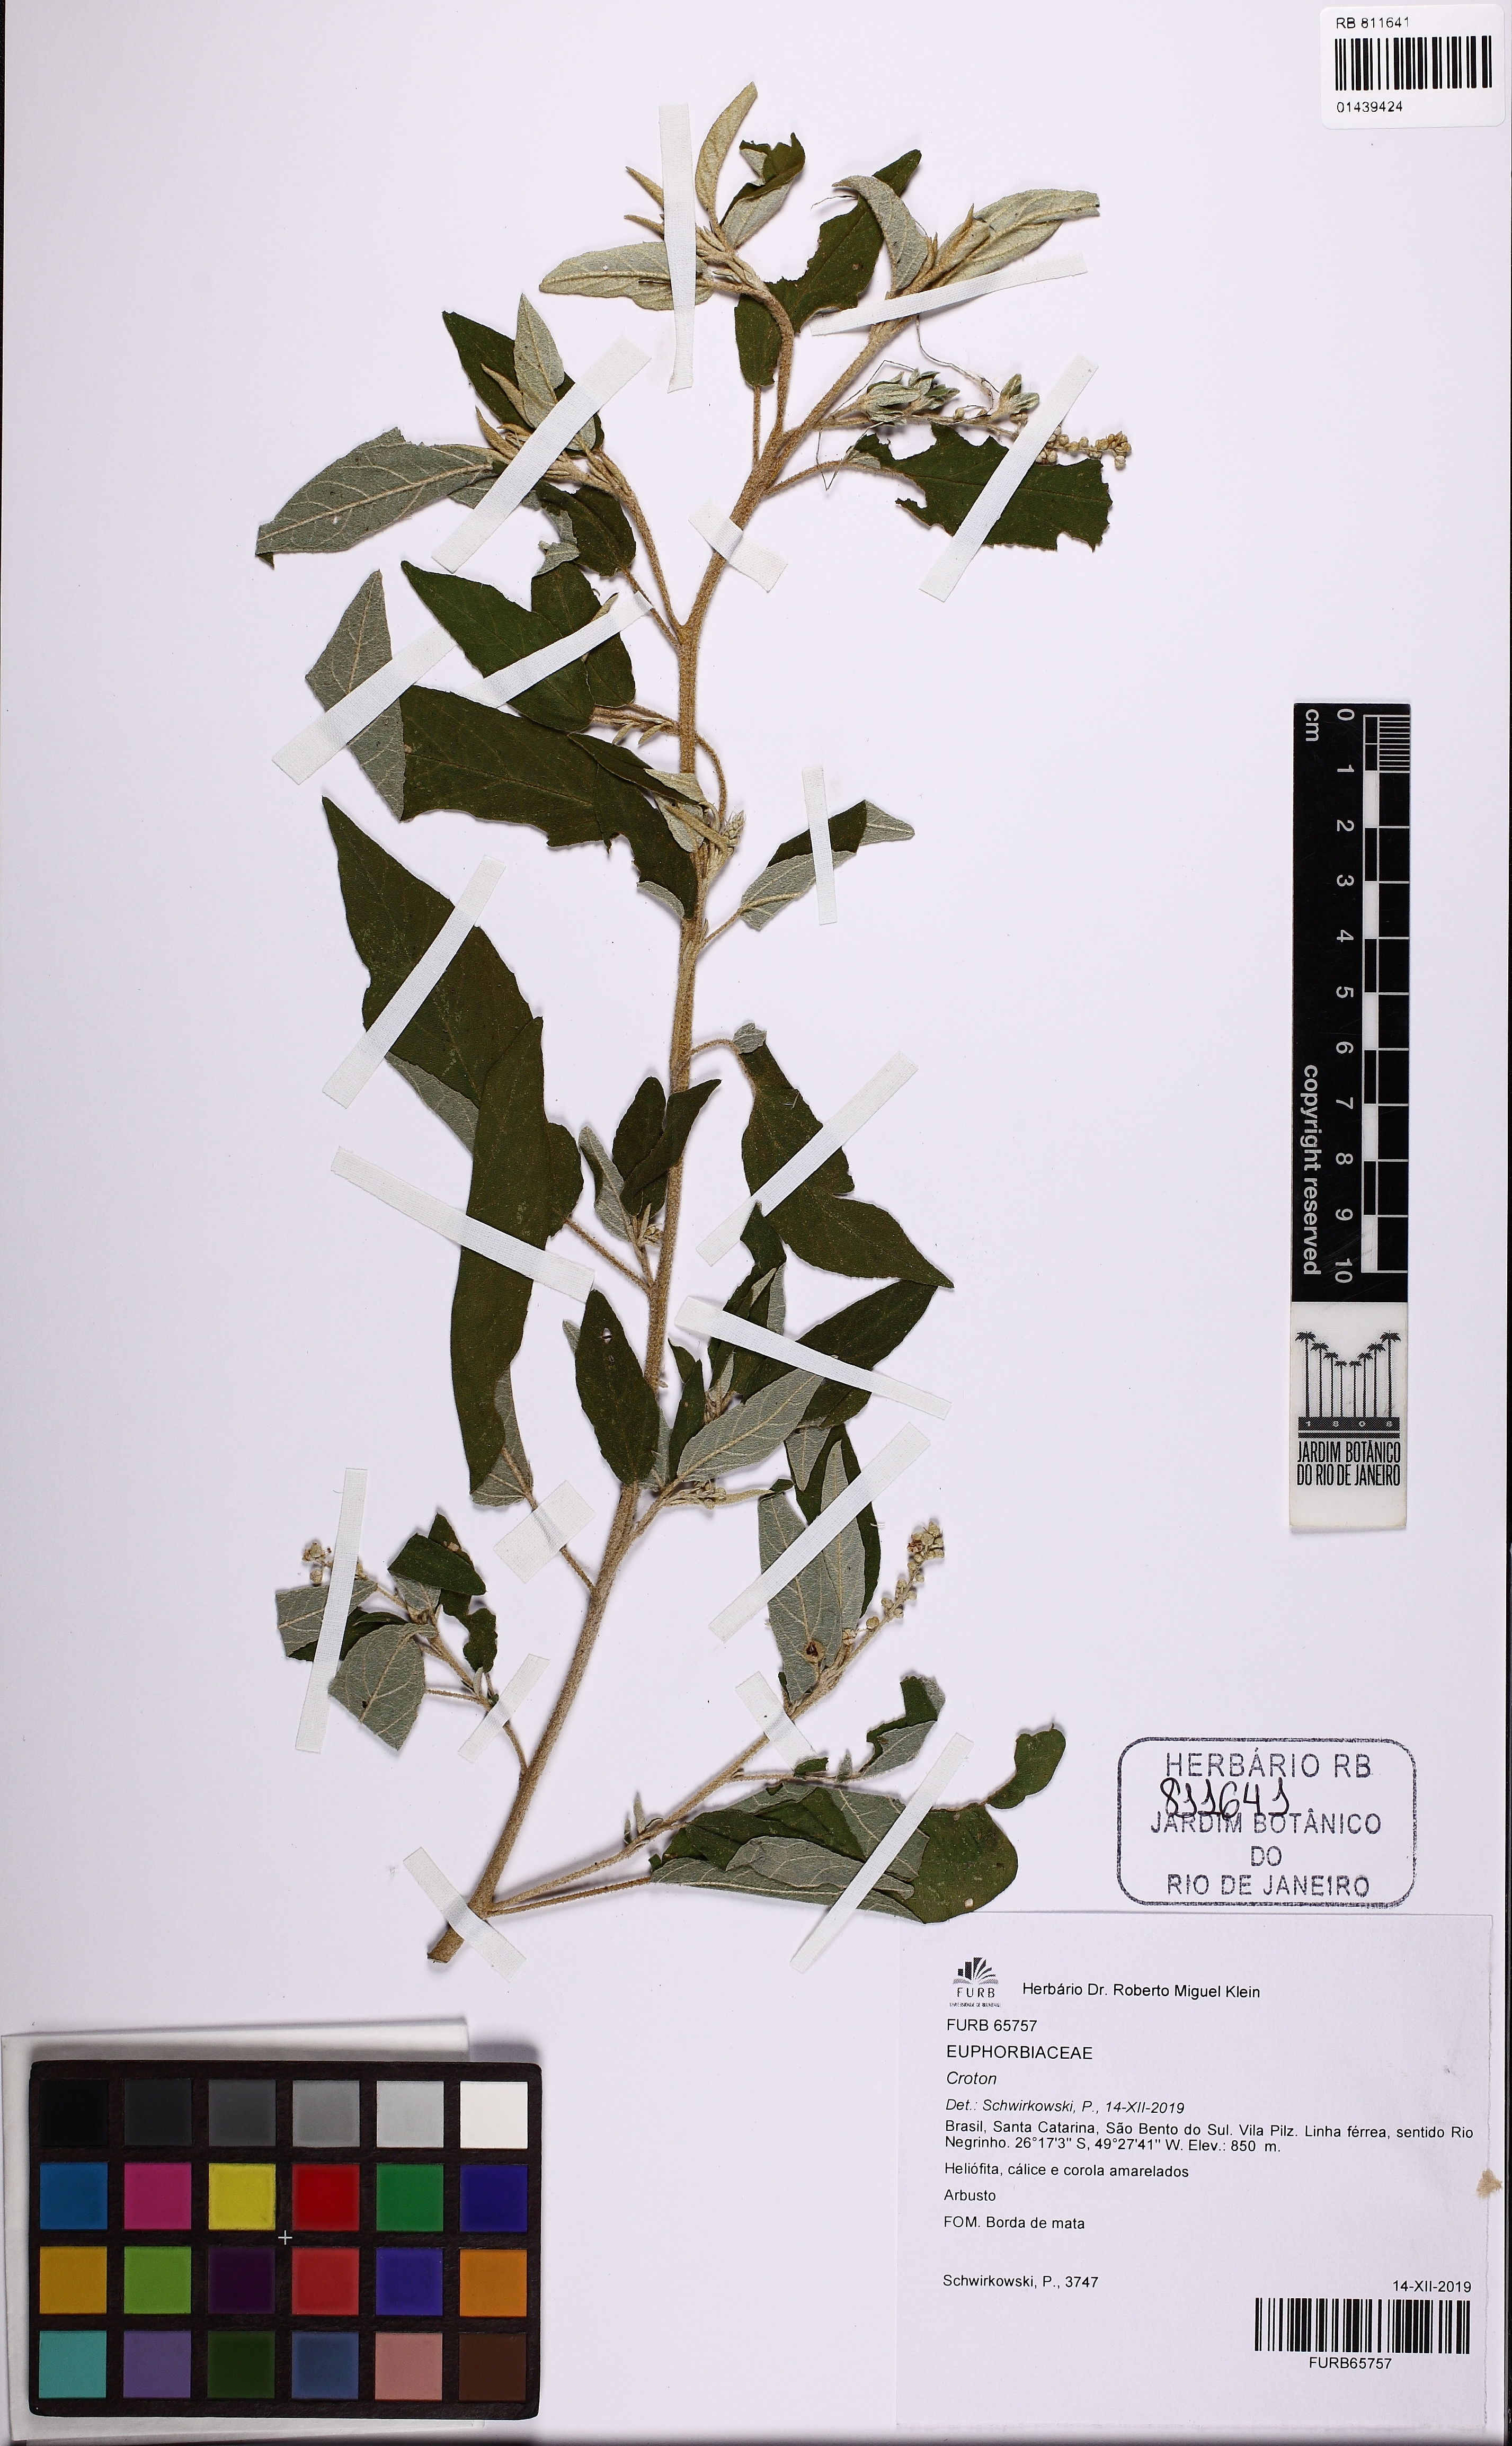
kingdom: Plantae
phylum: Tracheophyta
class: Magnoliopsida
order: Malpighiales
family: Euphorbiaceae
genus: Croton
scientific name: Croton ceanothifolius
